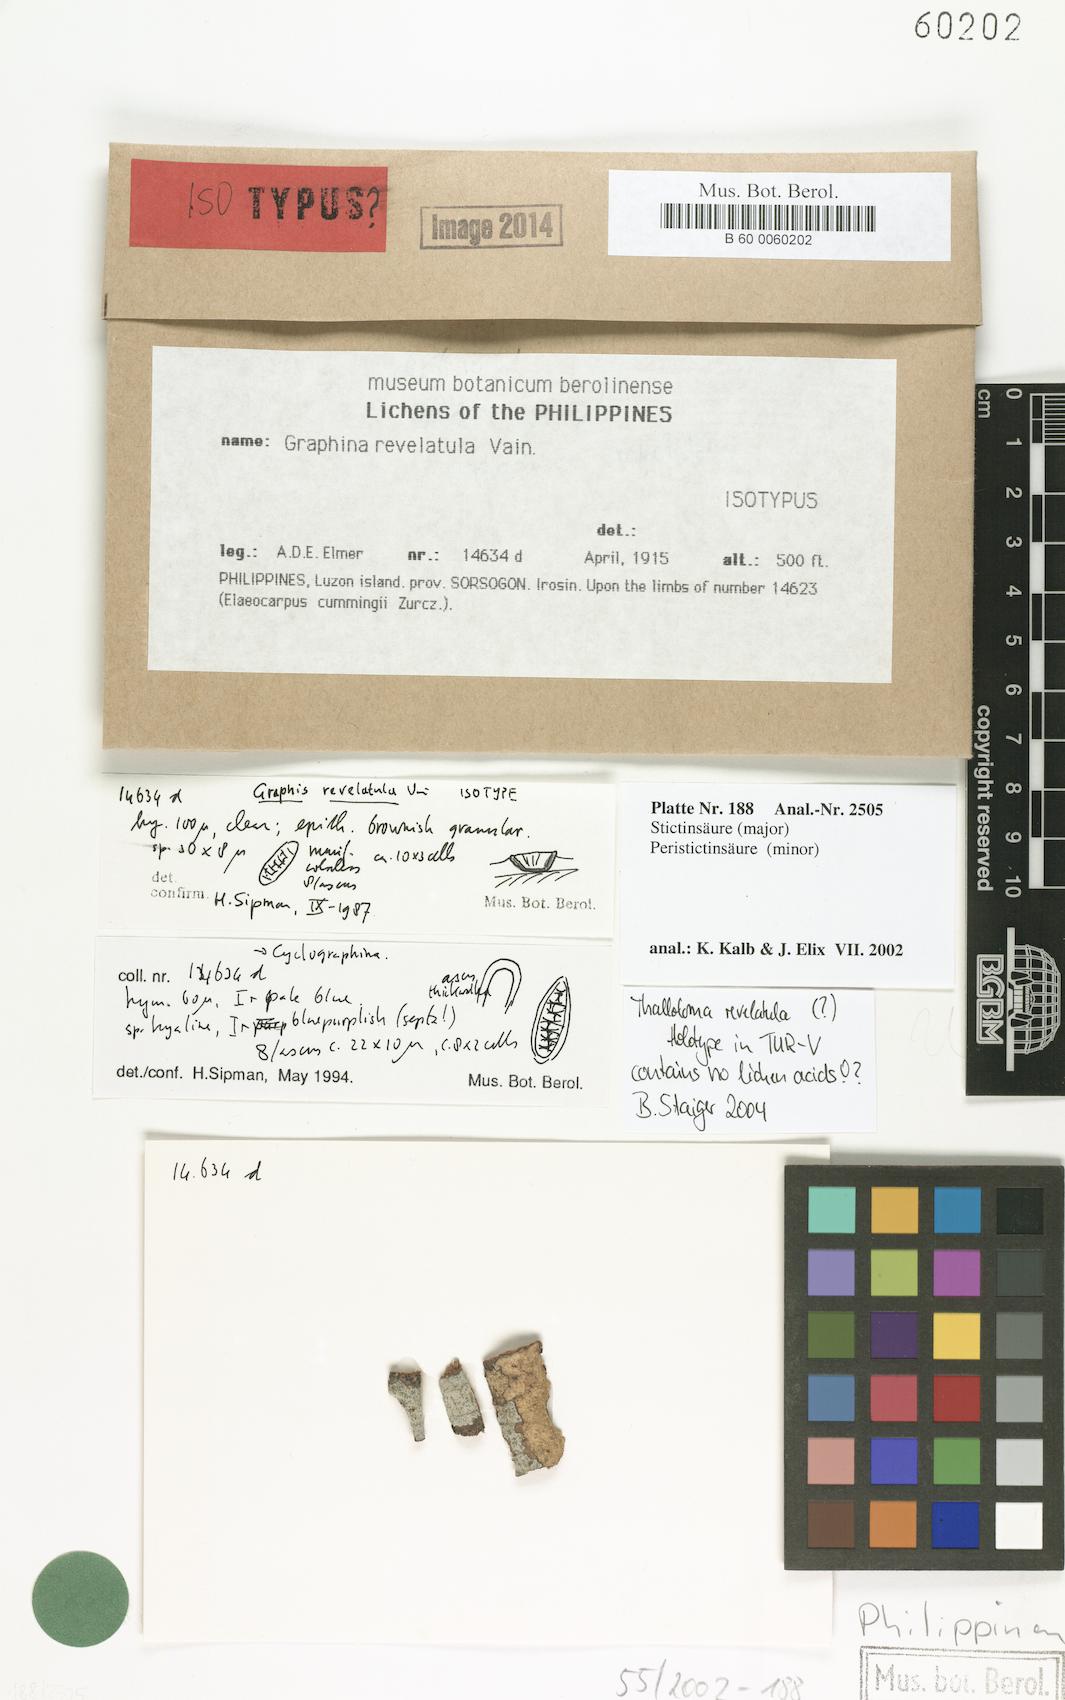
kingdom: Fungi
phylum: Ascomycota
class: Lecanoromycetes
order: Ostropales
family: Graphidaceae
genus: Graphina
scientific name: Graphina
